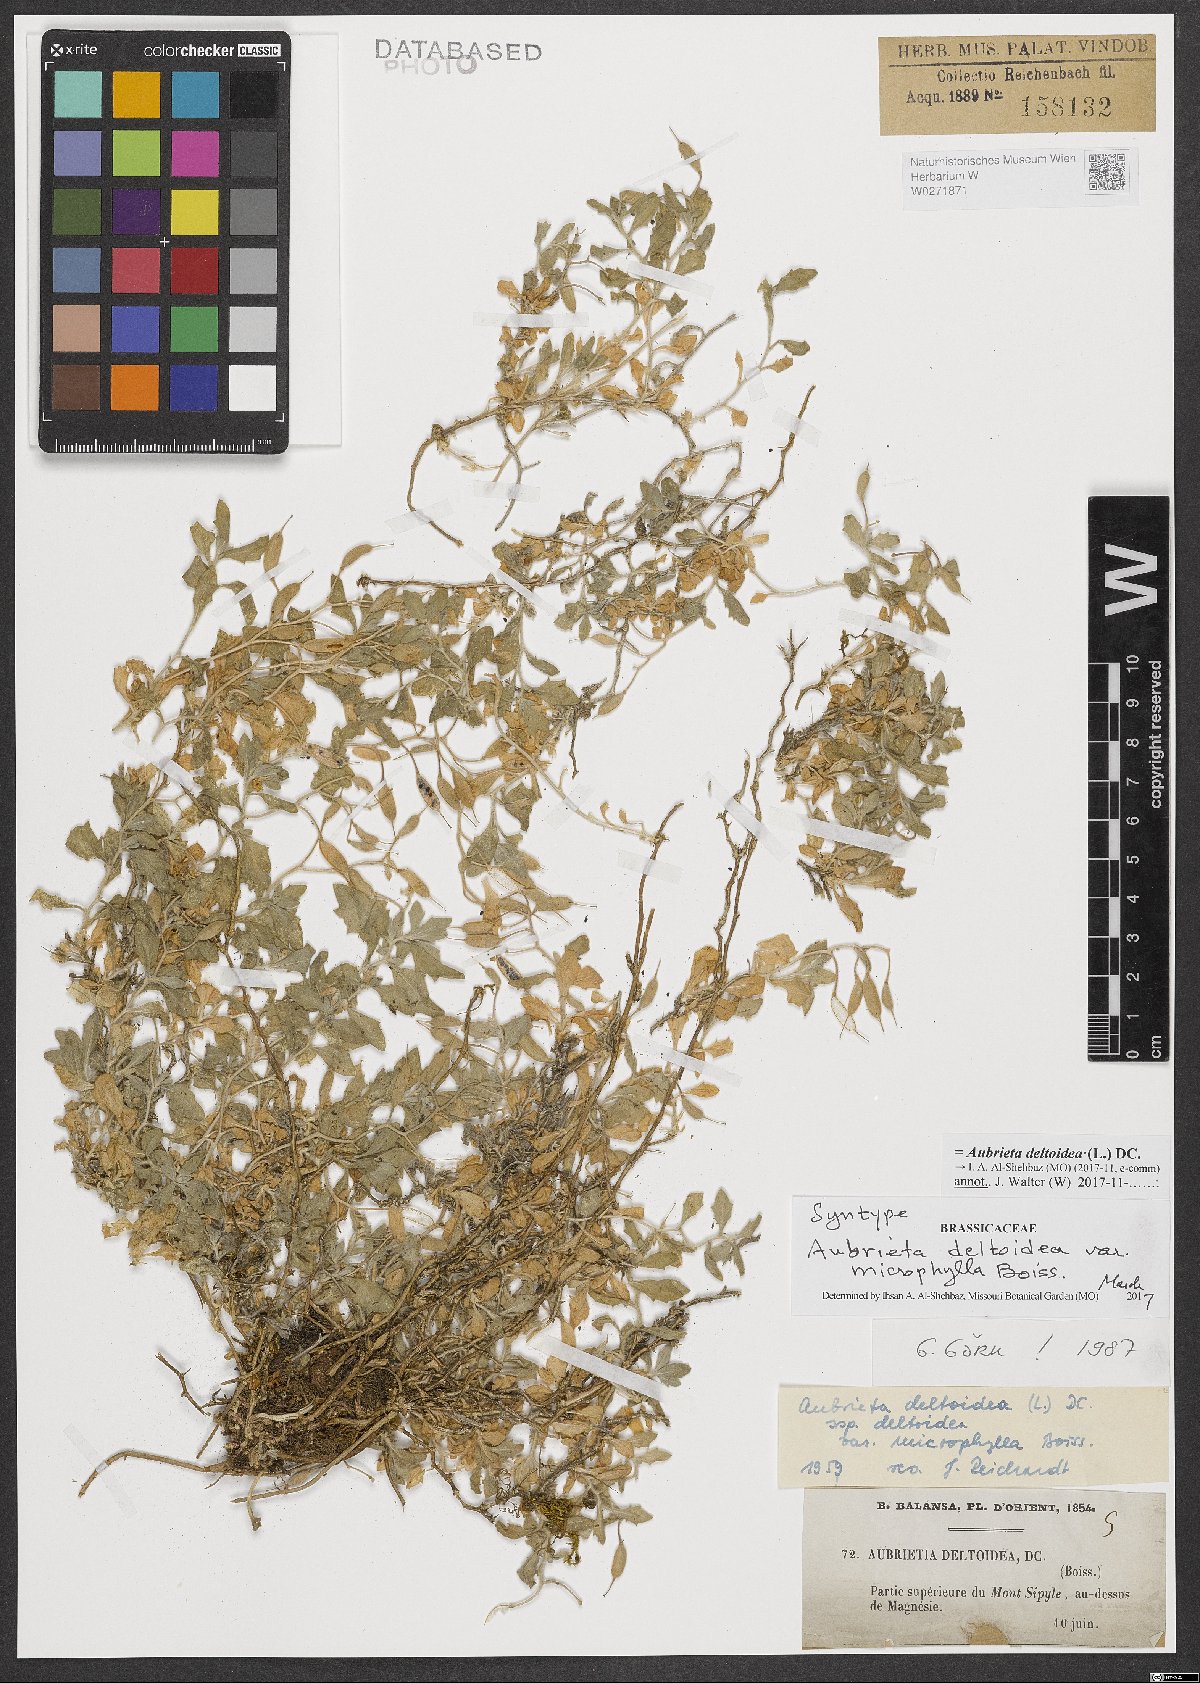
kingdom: Plantae
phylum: Tracheophyta
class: Magnoliopsida
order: Brassicales
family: Brassicaceae
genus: Aubrieta
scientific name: Aubrieta deltoidea
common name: Aubretia
